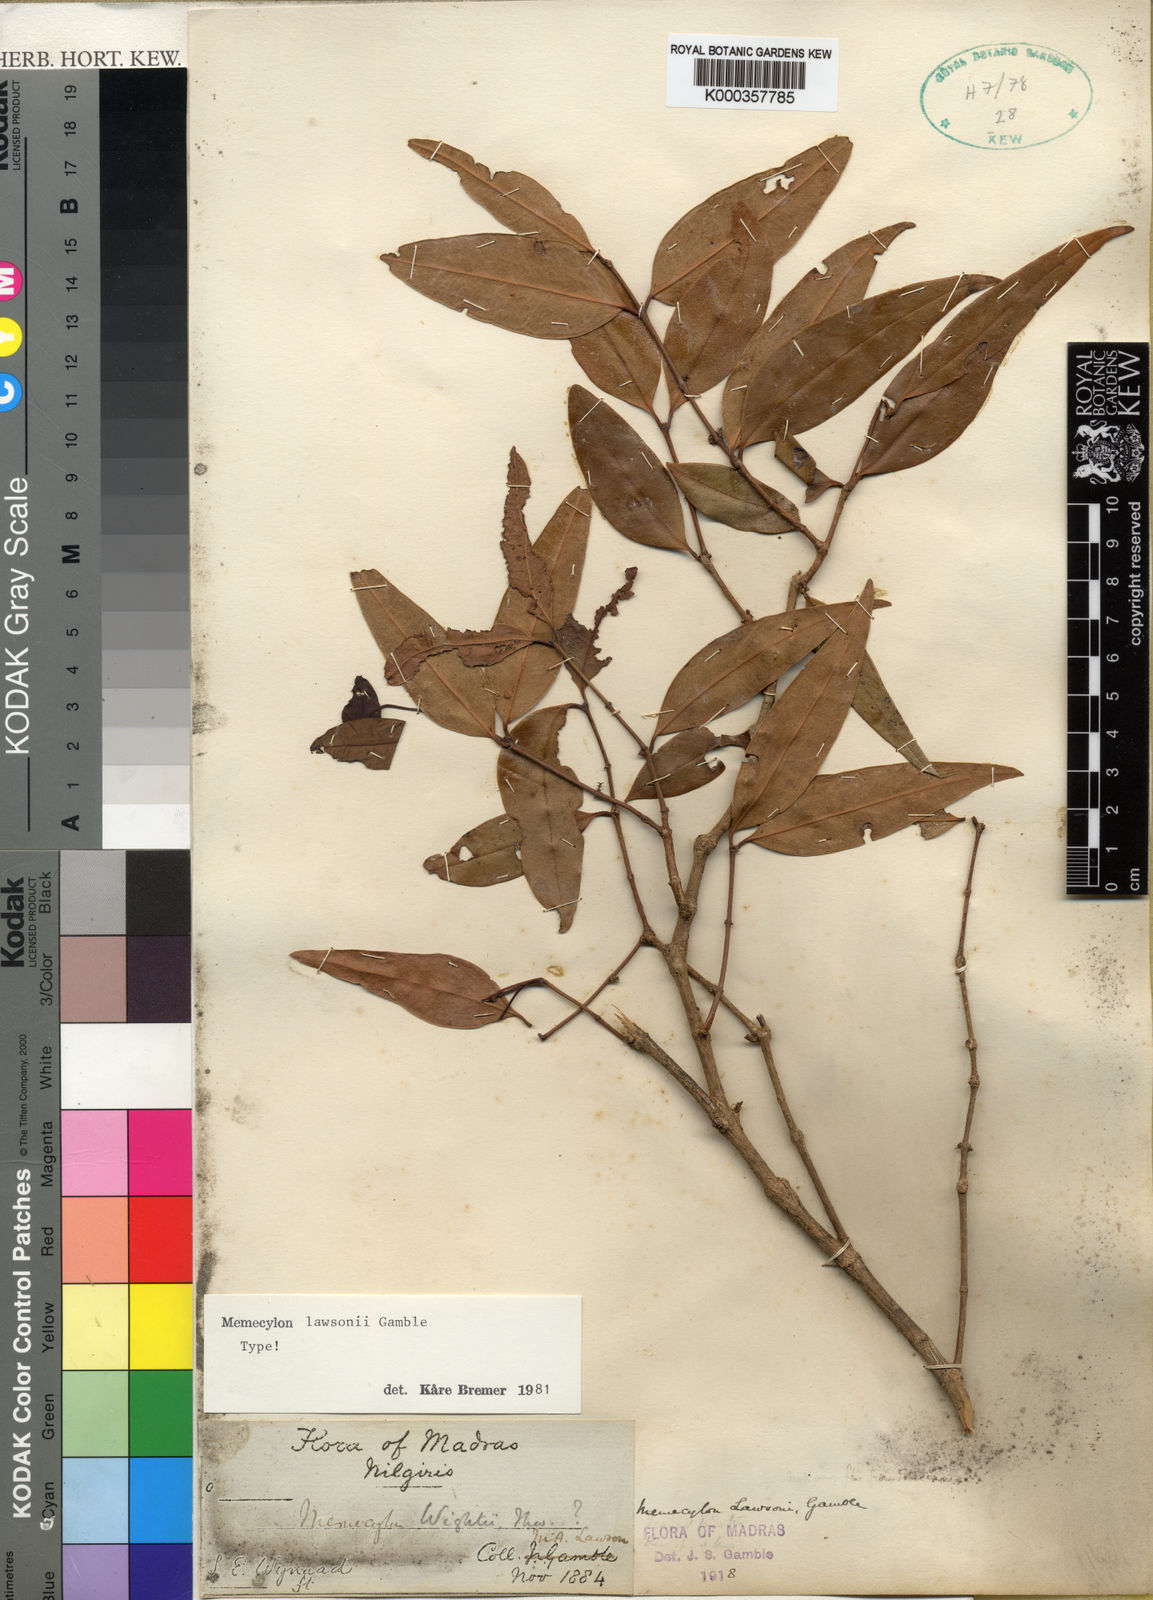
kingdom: Plantae
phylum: Tracheophyta
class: Magnoliopsida
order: Myrtales
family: Melastomataceae
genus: Memecylon
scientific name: Memecylon lawsonii
